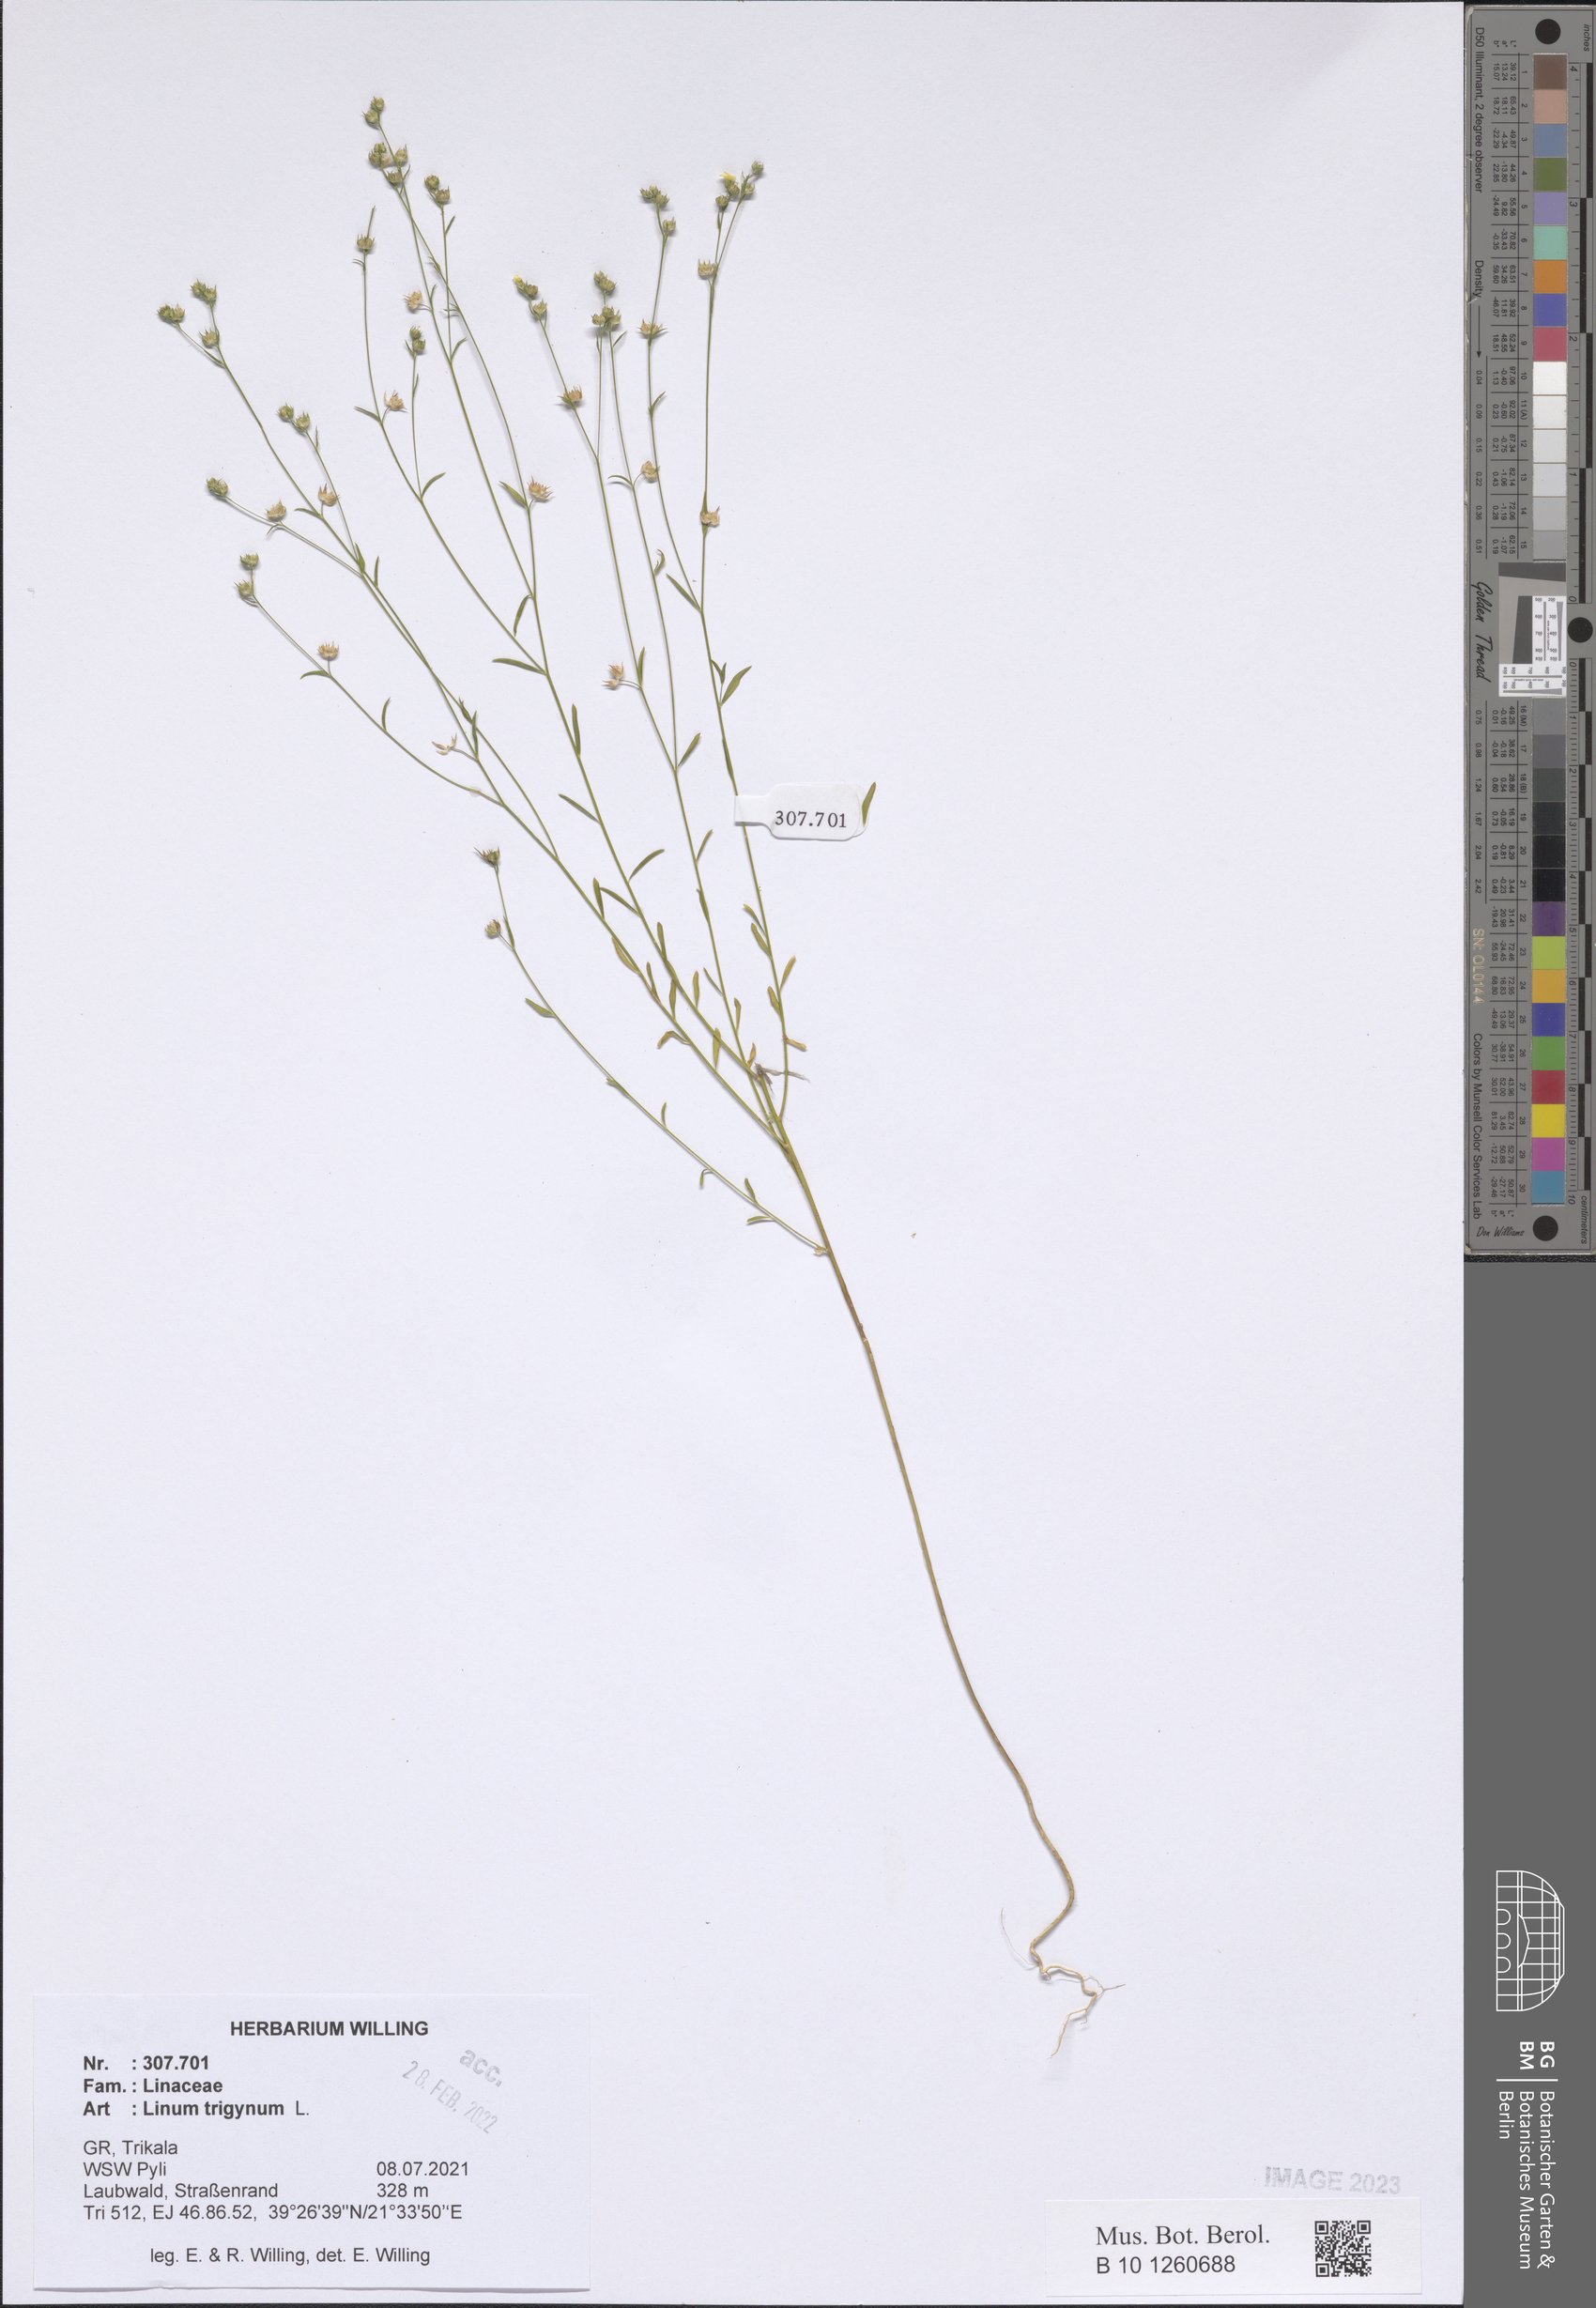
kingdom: Plantae
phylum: Tracheophyta
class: Magnoliopsida
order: Malpighiales
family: Linaceae
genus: Linum
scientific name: Linum trigynum
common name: French flax
